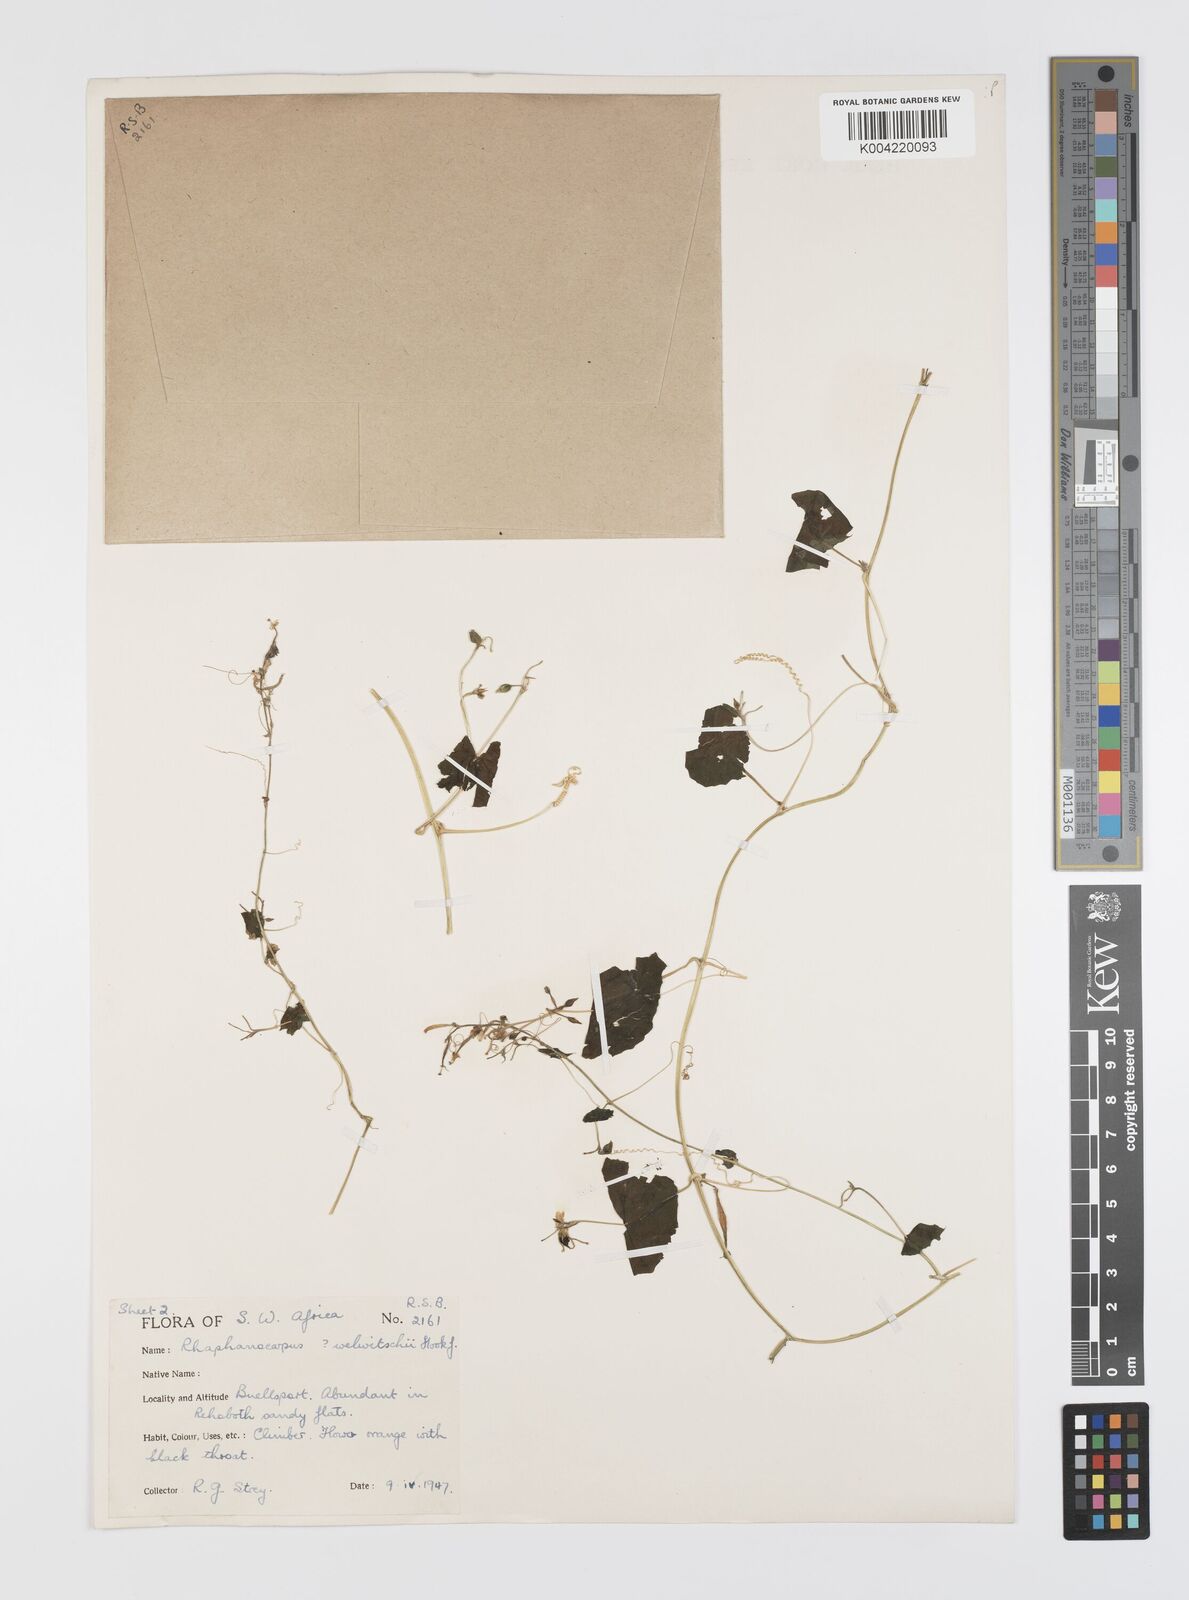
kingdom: Plantae
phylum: Tracheophyta
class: Magnoliopsida
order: Cucurbitales
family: Cucurbitaceae
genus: Momordica
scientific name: Momordica
